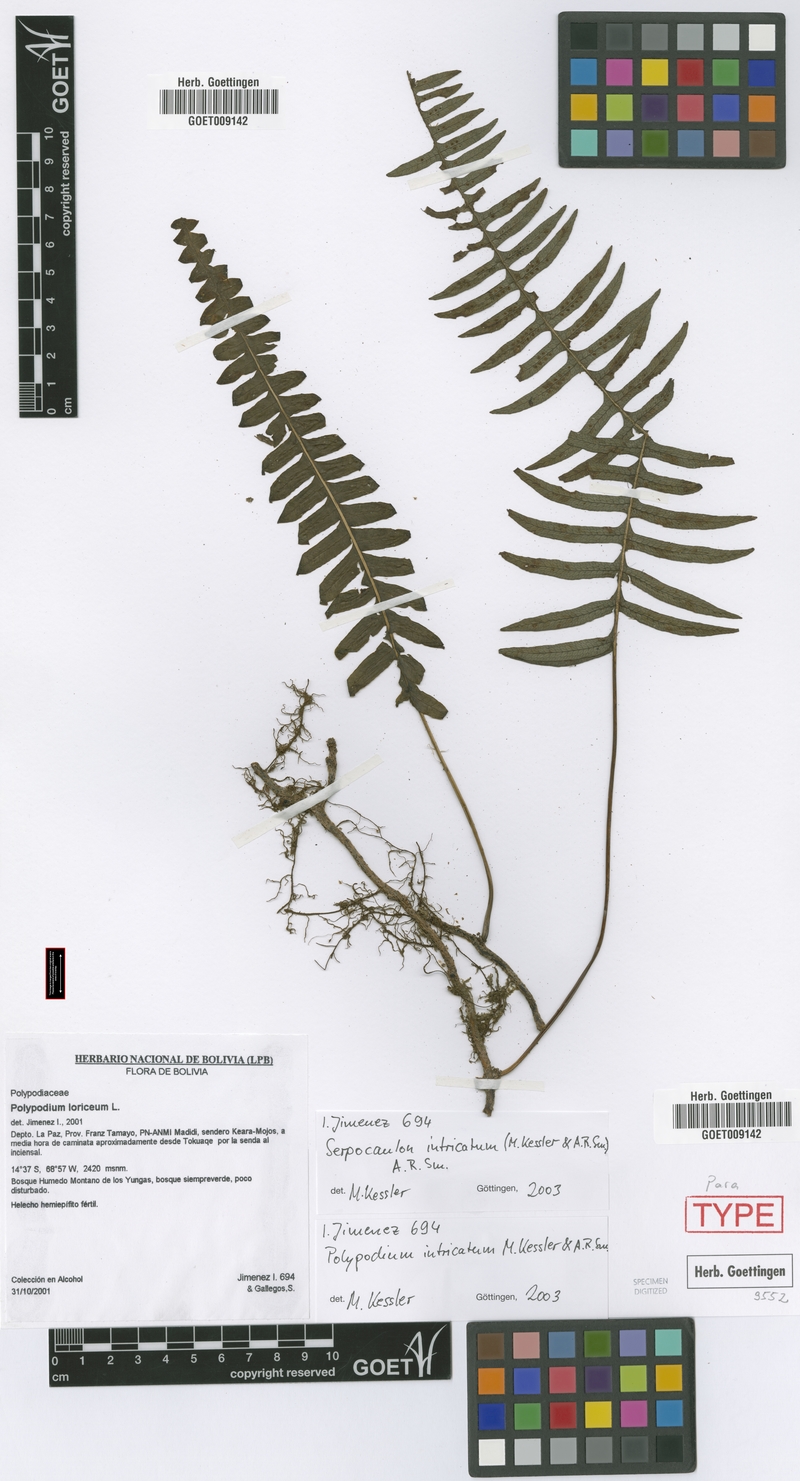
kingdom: Plantae
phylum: Tracheophyta
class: Polypodiopsida
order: Polypodiales
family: Polypodiaceae
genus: Serpocaulon
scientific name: Serpocaulon intricatum
